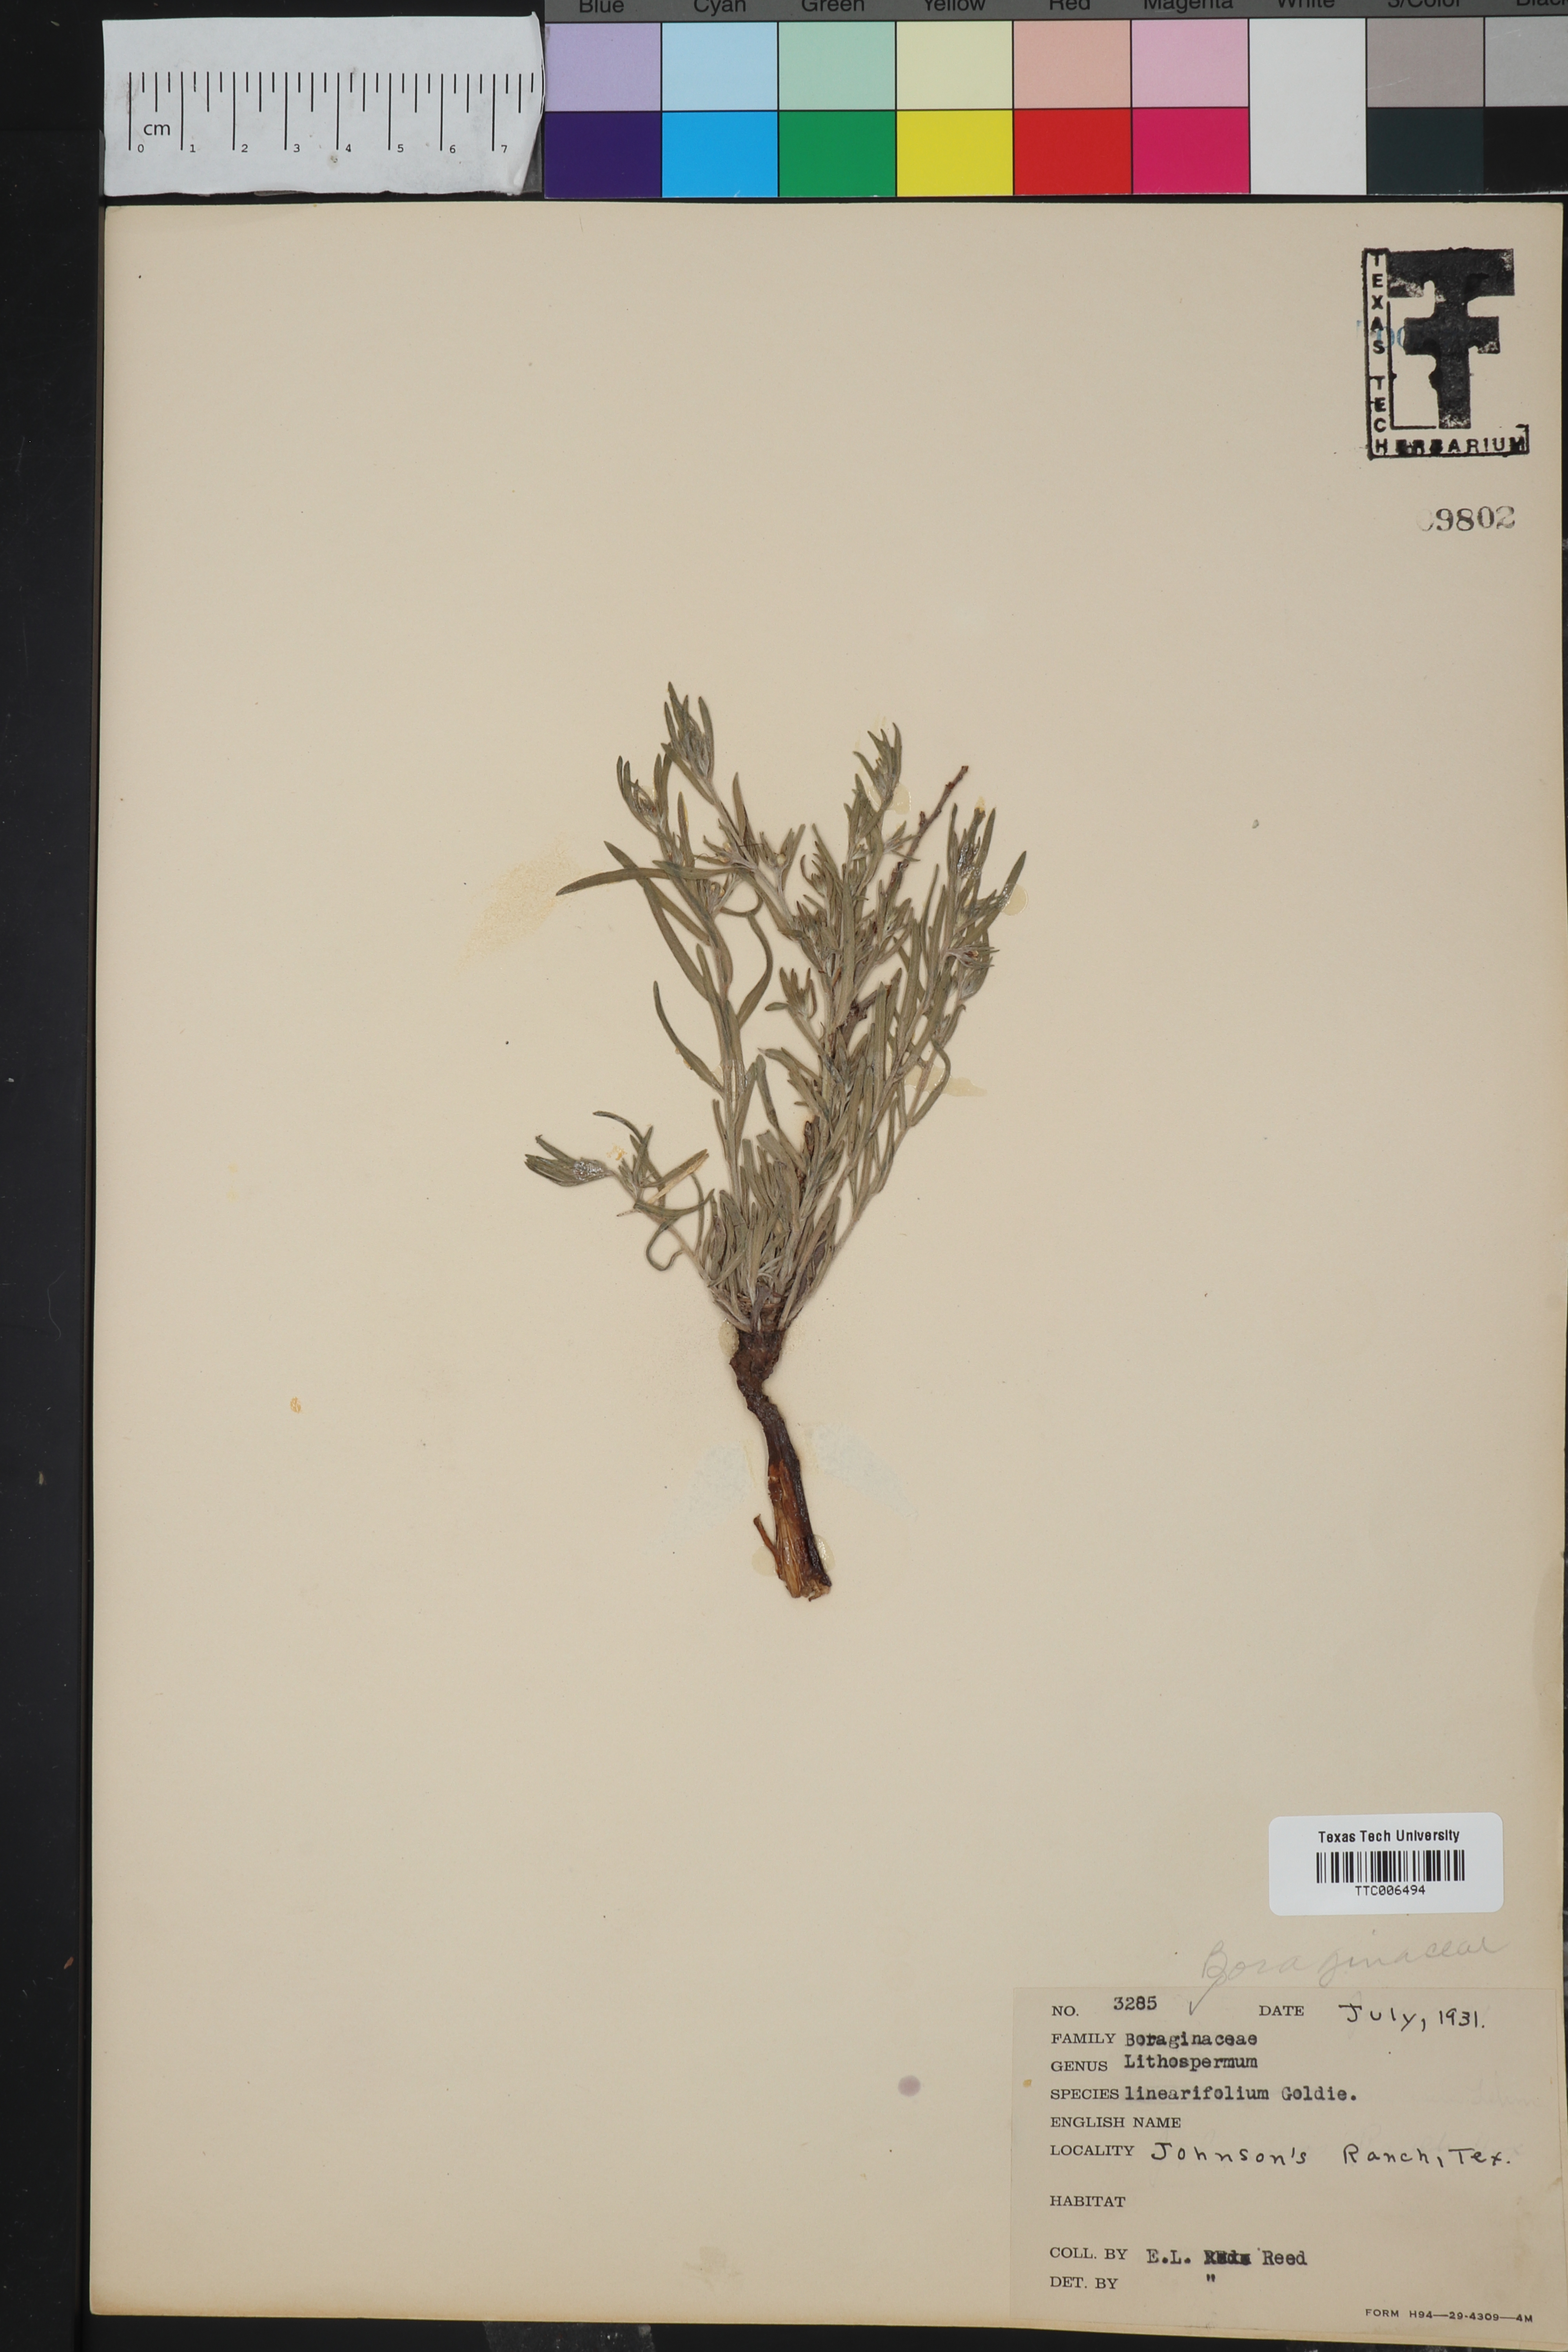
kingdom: Plantae
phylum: Tracheophyta
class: Magnoliopsida
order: Boraginales
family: Boraginaceae
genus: Lithospermum
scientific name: Lithospermum incisum
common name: Fringed gromwell
